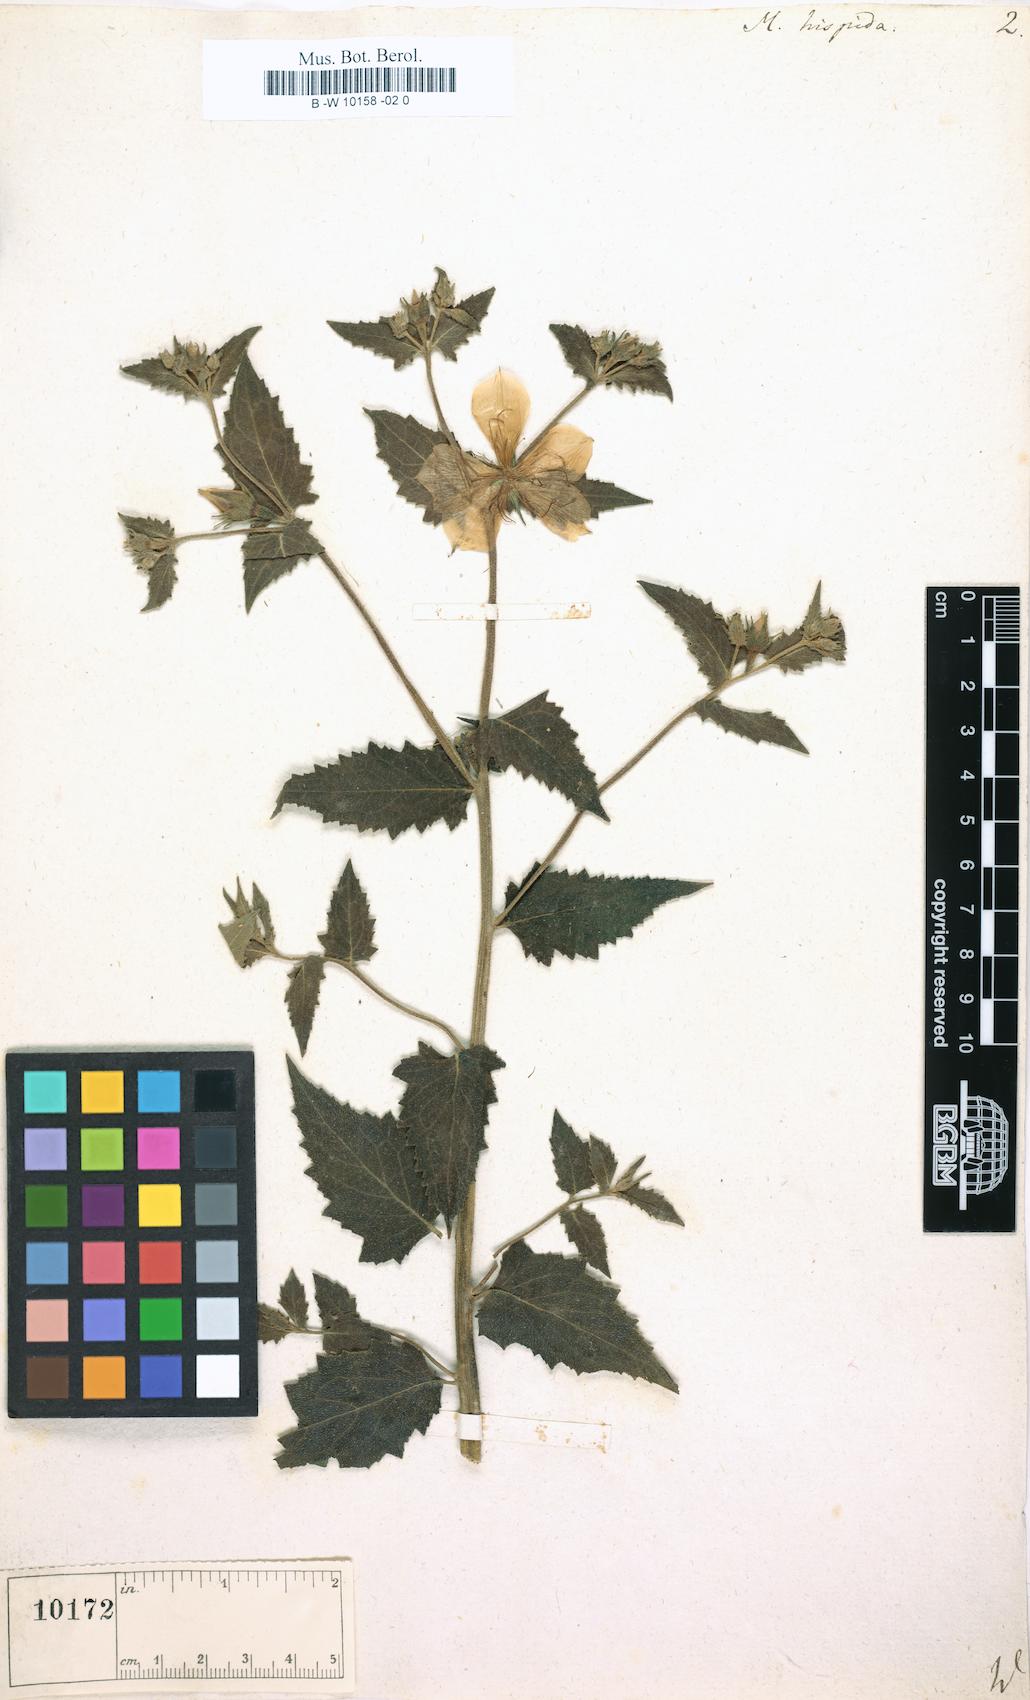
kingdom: Plantae
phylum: Tracheophyta
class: Magnoliopsida
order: Cornales
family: Loasaceae
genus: Mentzelia
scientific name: Mentzelia hispida
